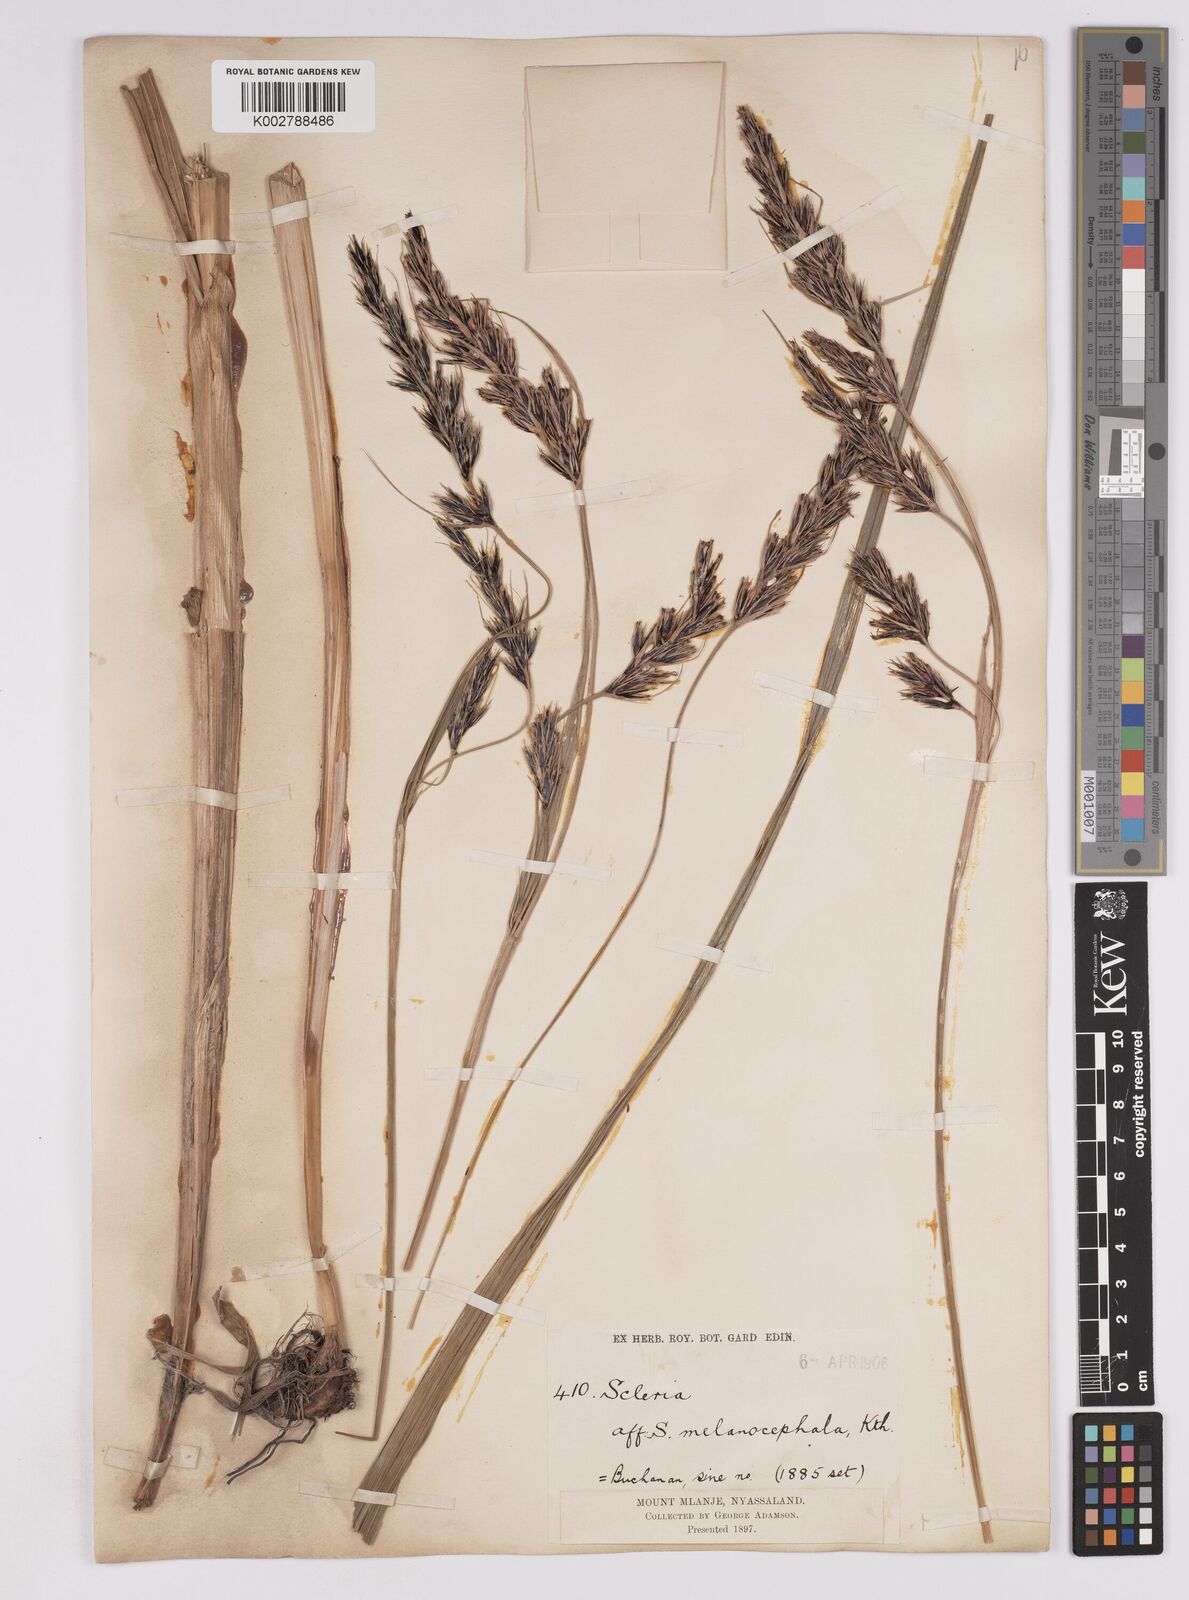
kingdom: Plantae
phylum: Tracheophyta
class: Liliopsida
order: Poales
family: Cyperaceae
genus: Scleria
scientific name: Scleria melanomphala
